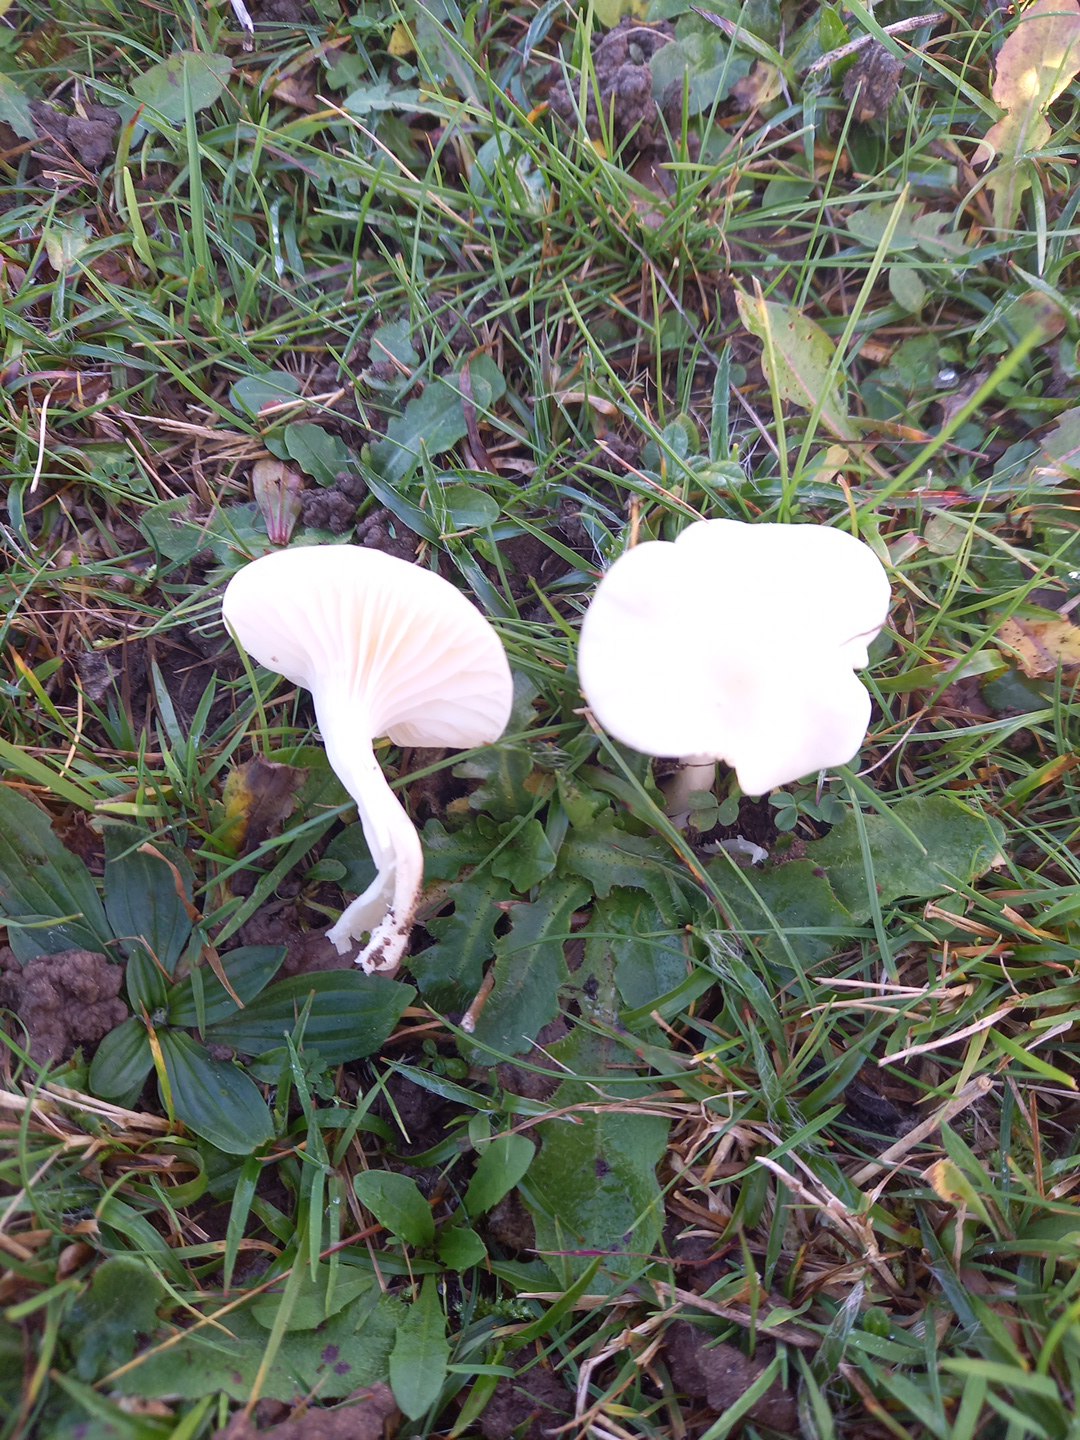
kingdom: Fungi
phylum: Basidiomycota
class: Agaricomycetes
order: Agaricales
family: Hygrophoraceae
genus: Cuphophyllus
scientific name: Cuphophyllus virgineus
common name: snehvid vokshat
